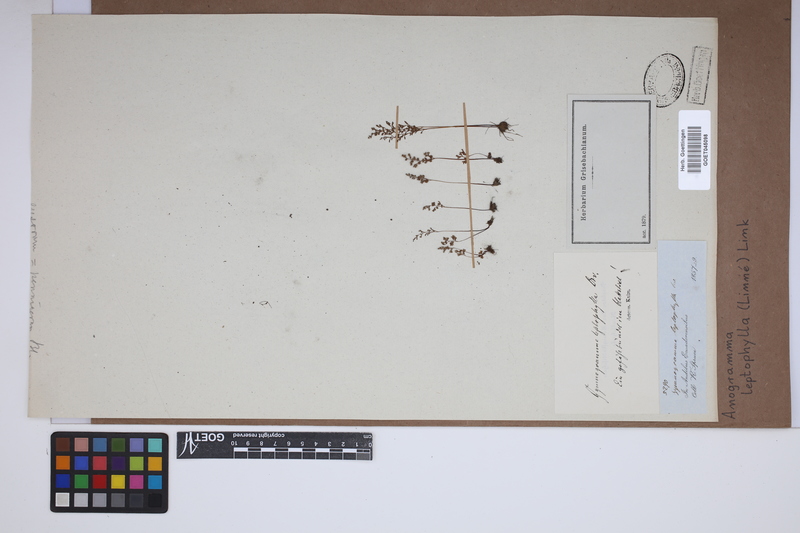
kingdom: Plantae
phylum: Tracheophyta
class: Polypodiopsida
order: Polypodiales
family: Pteridaceae
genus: Anogramma
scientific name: Anogramma leptophylla
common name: Jersey fern
